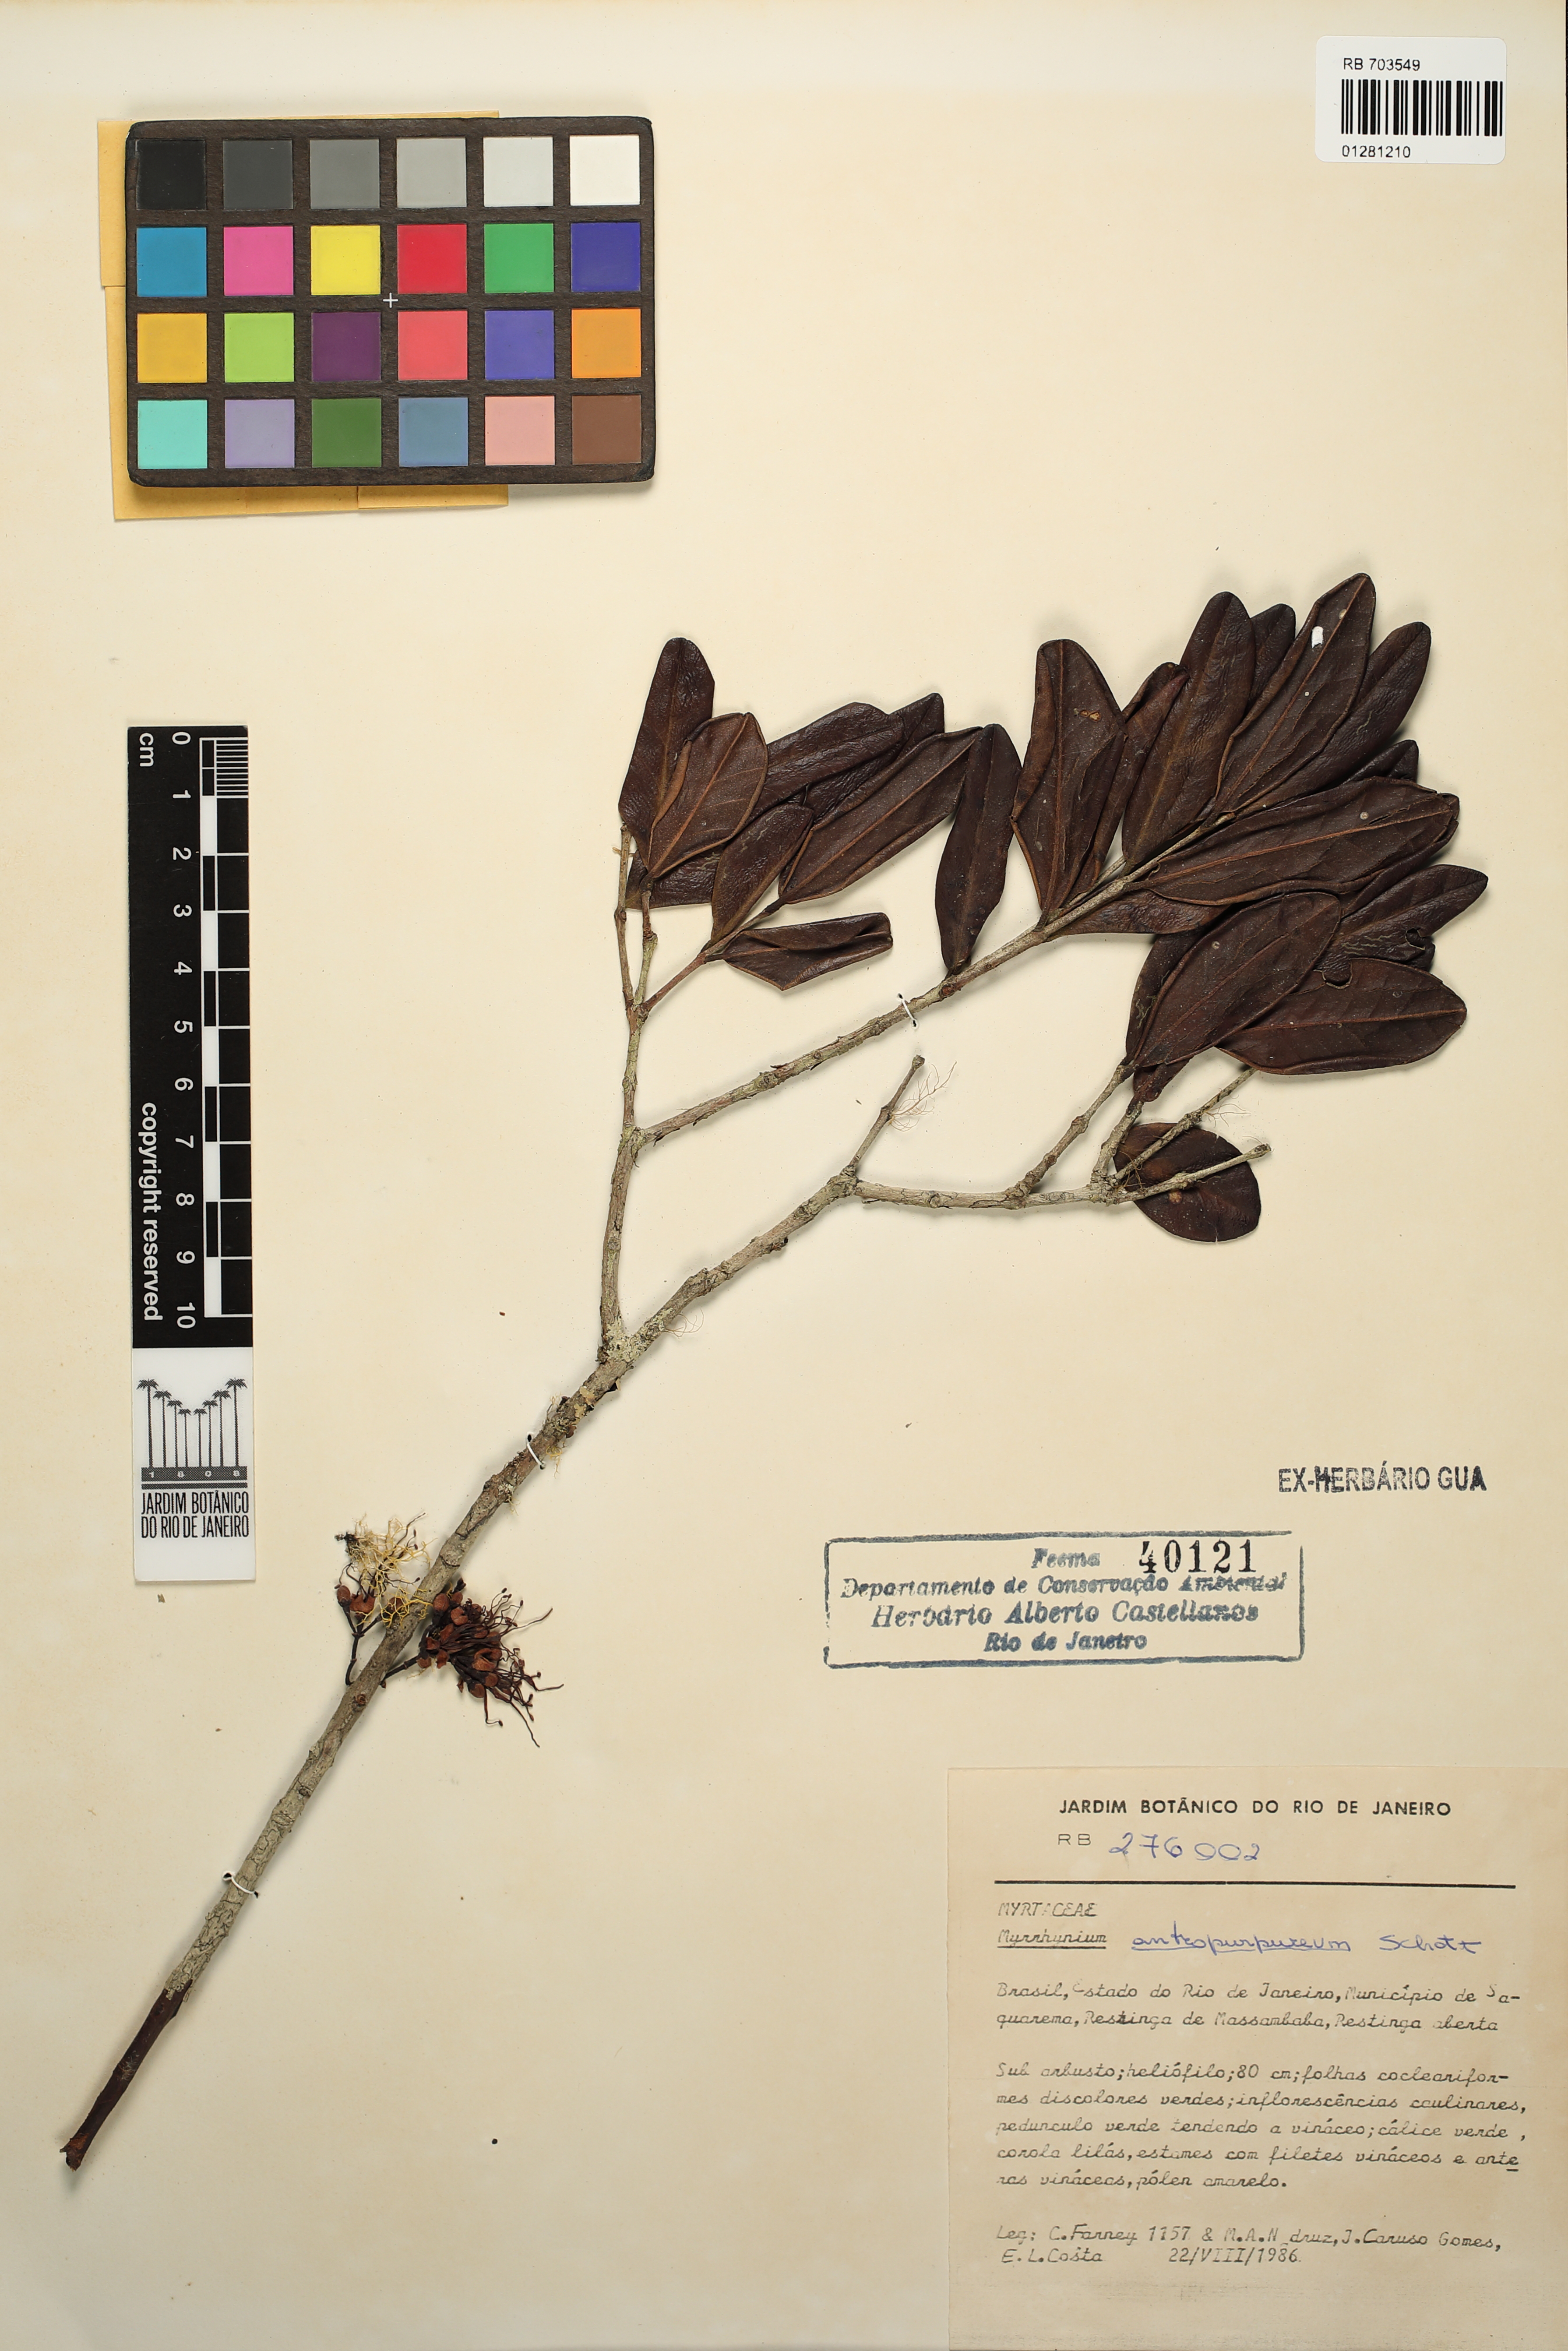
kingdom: Plantae
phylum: Tracheophyta
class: Magnoliopsida
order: Myrtales
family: Myrtaceae
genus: Myrrhinium
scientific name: Myrrhinium atropurpureum
